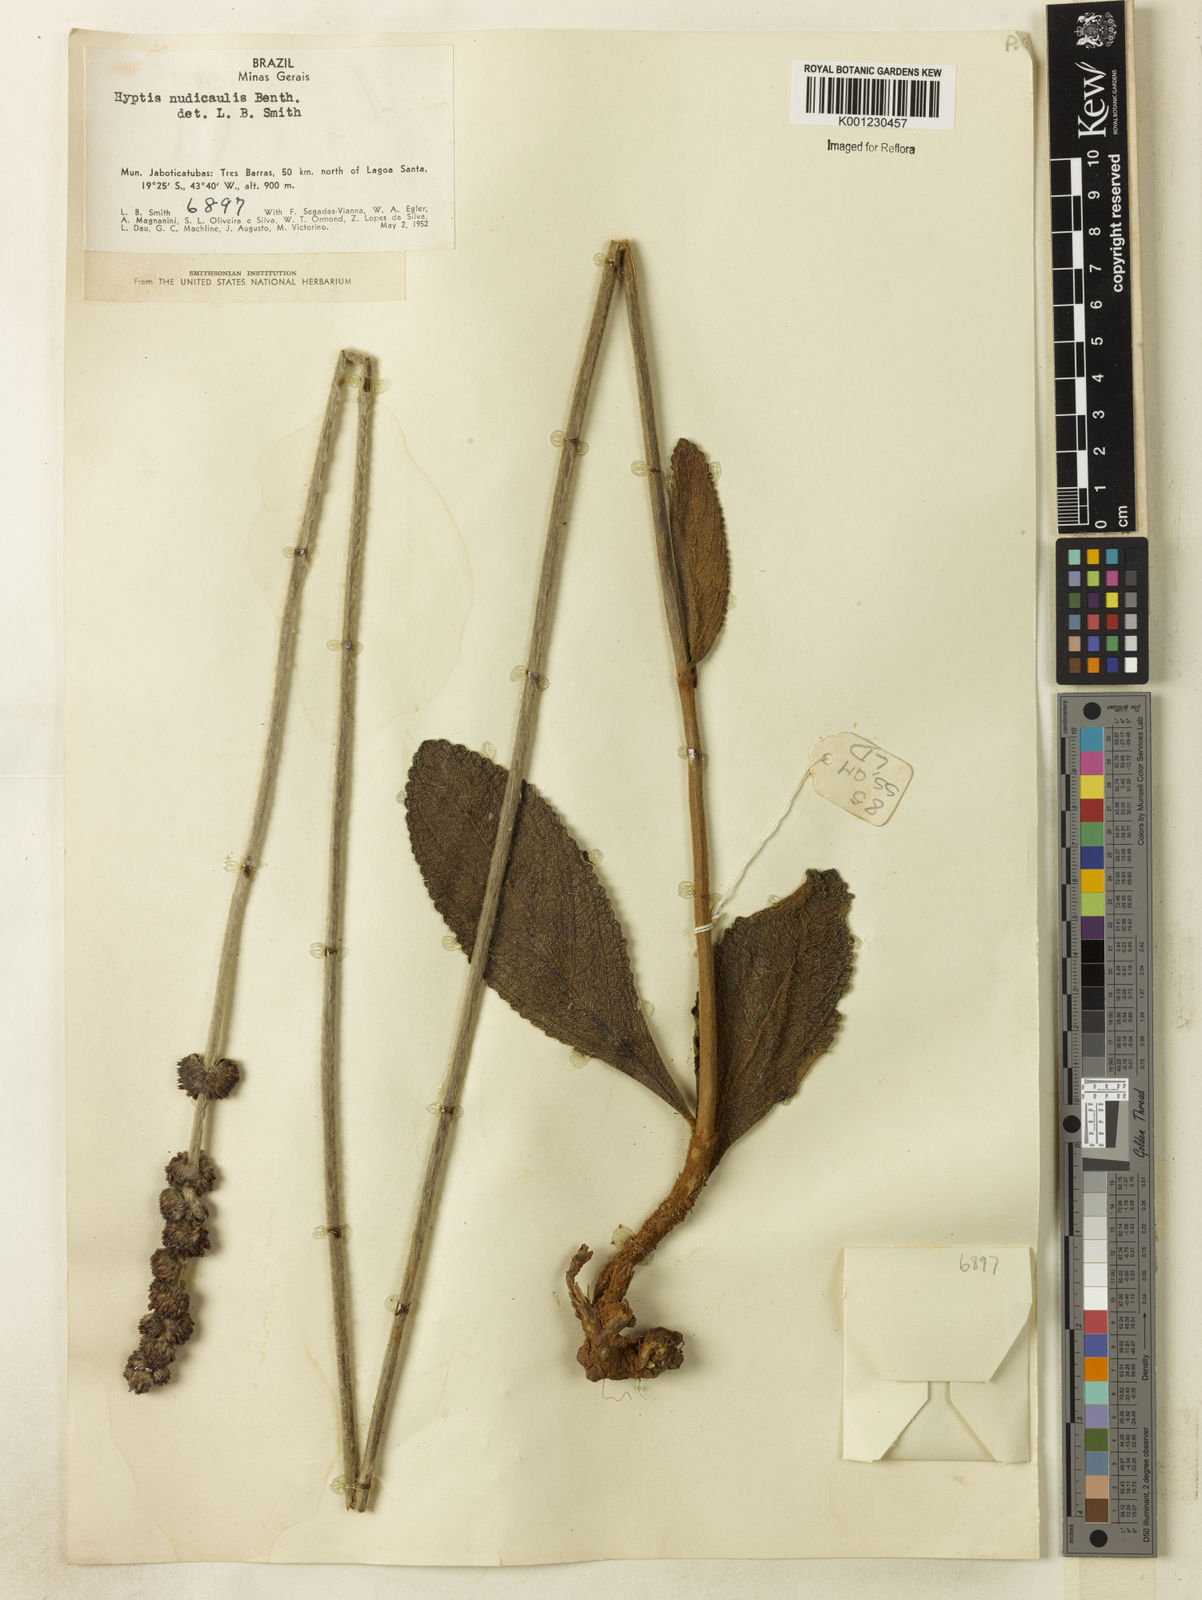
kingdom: Plantae
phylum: Tracheophyta
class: Magnoliopsida
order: Lamiales
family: Lamiaceae
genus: Hyptis
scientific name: Hyptis nudicaulis
